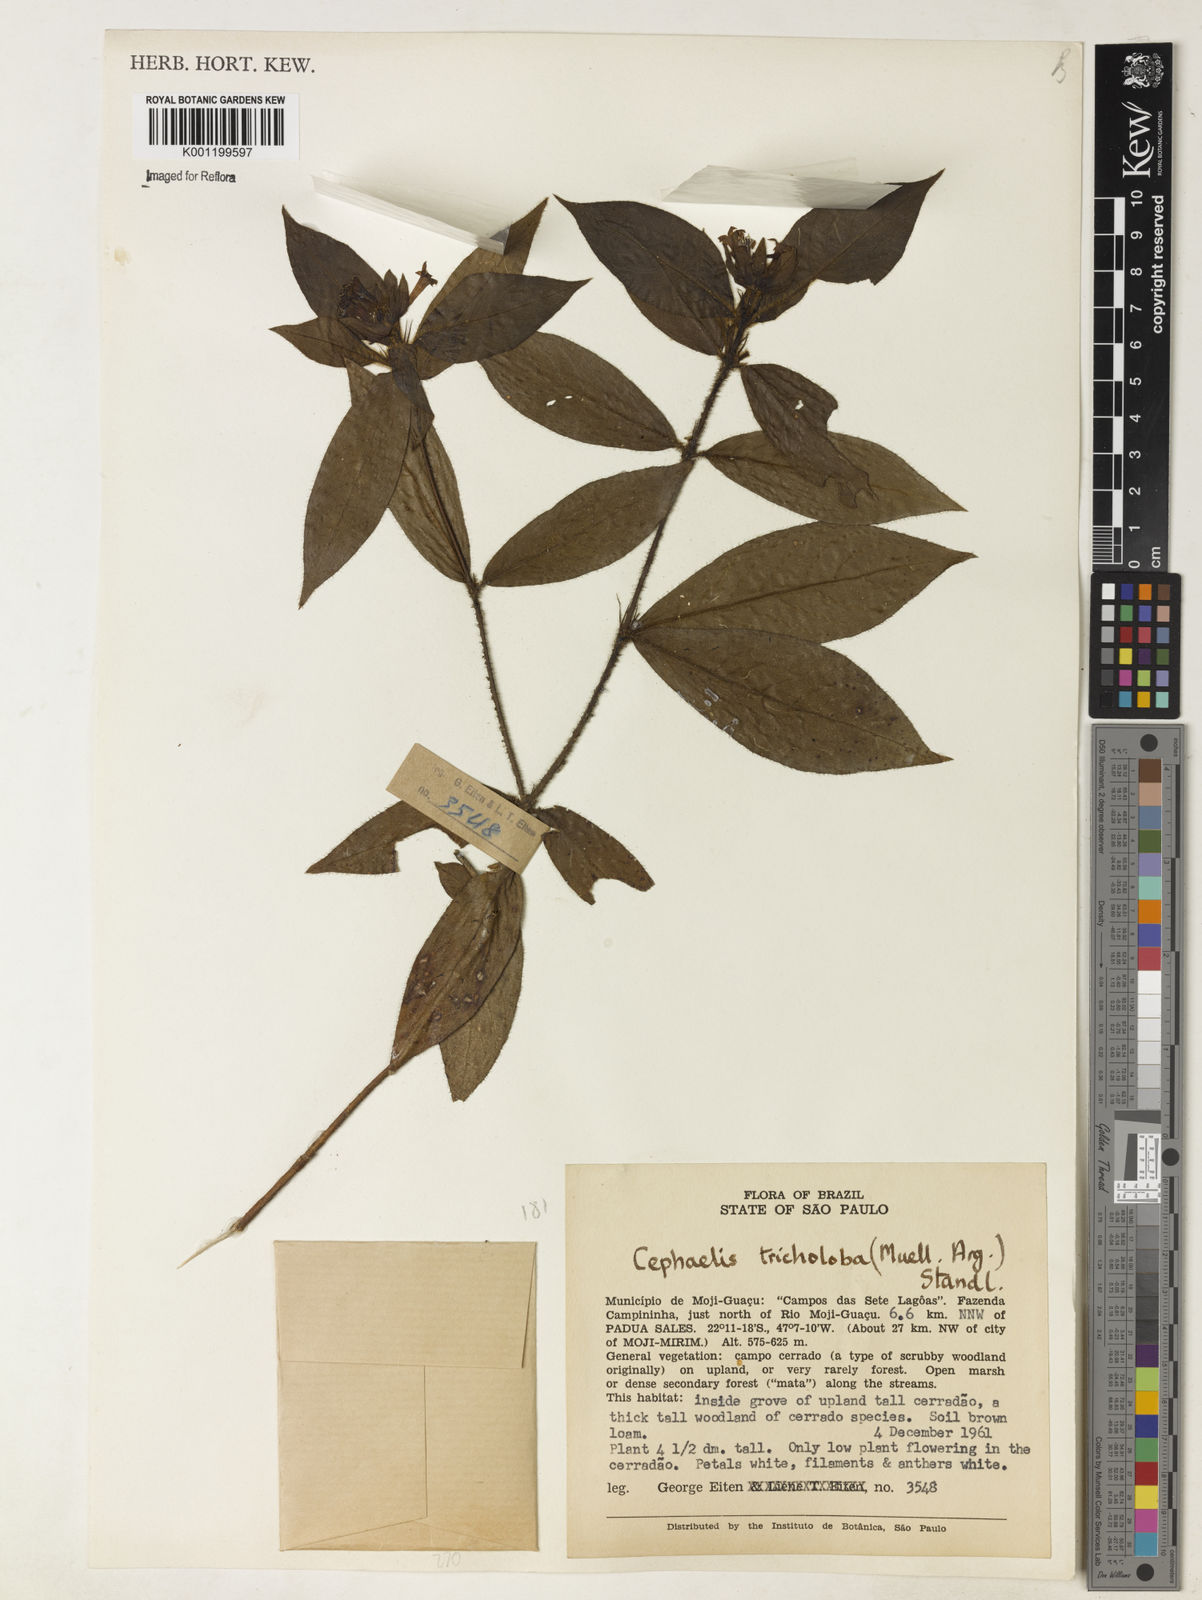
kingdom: Plantae
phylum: Tracheophyta
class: Magnoliopsida
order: Gentianales
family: Rubiaceae
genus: Psychotria
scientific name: Psychotria
